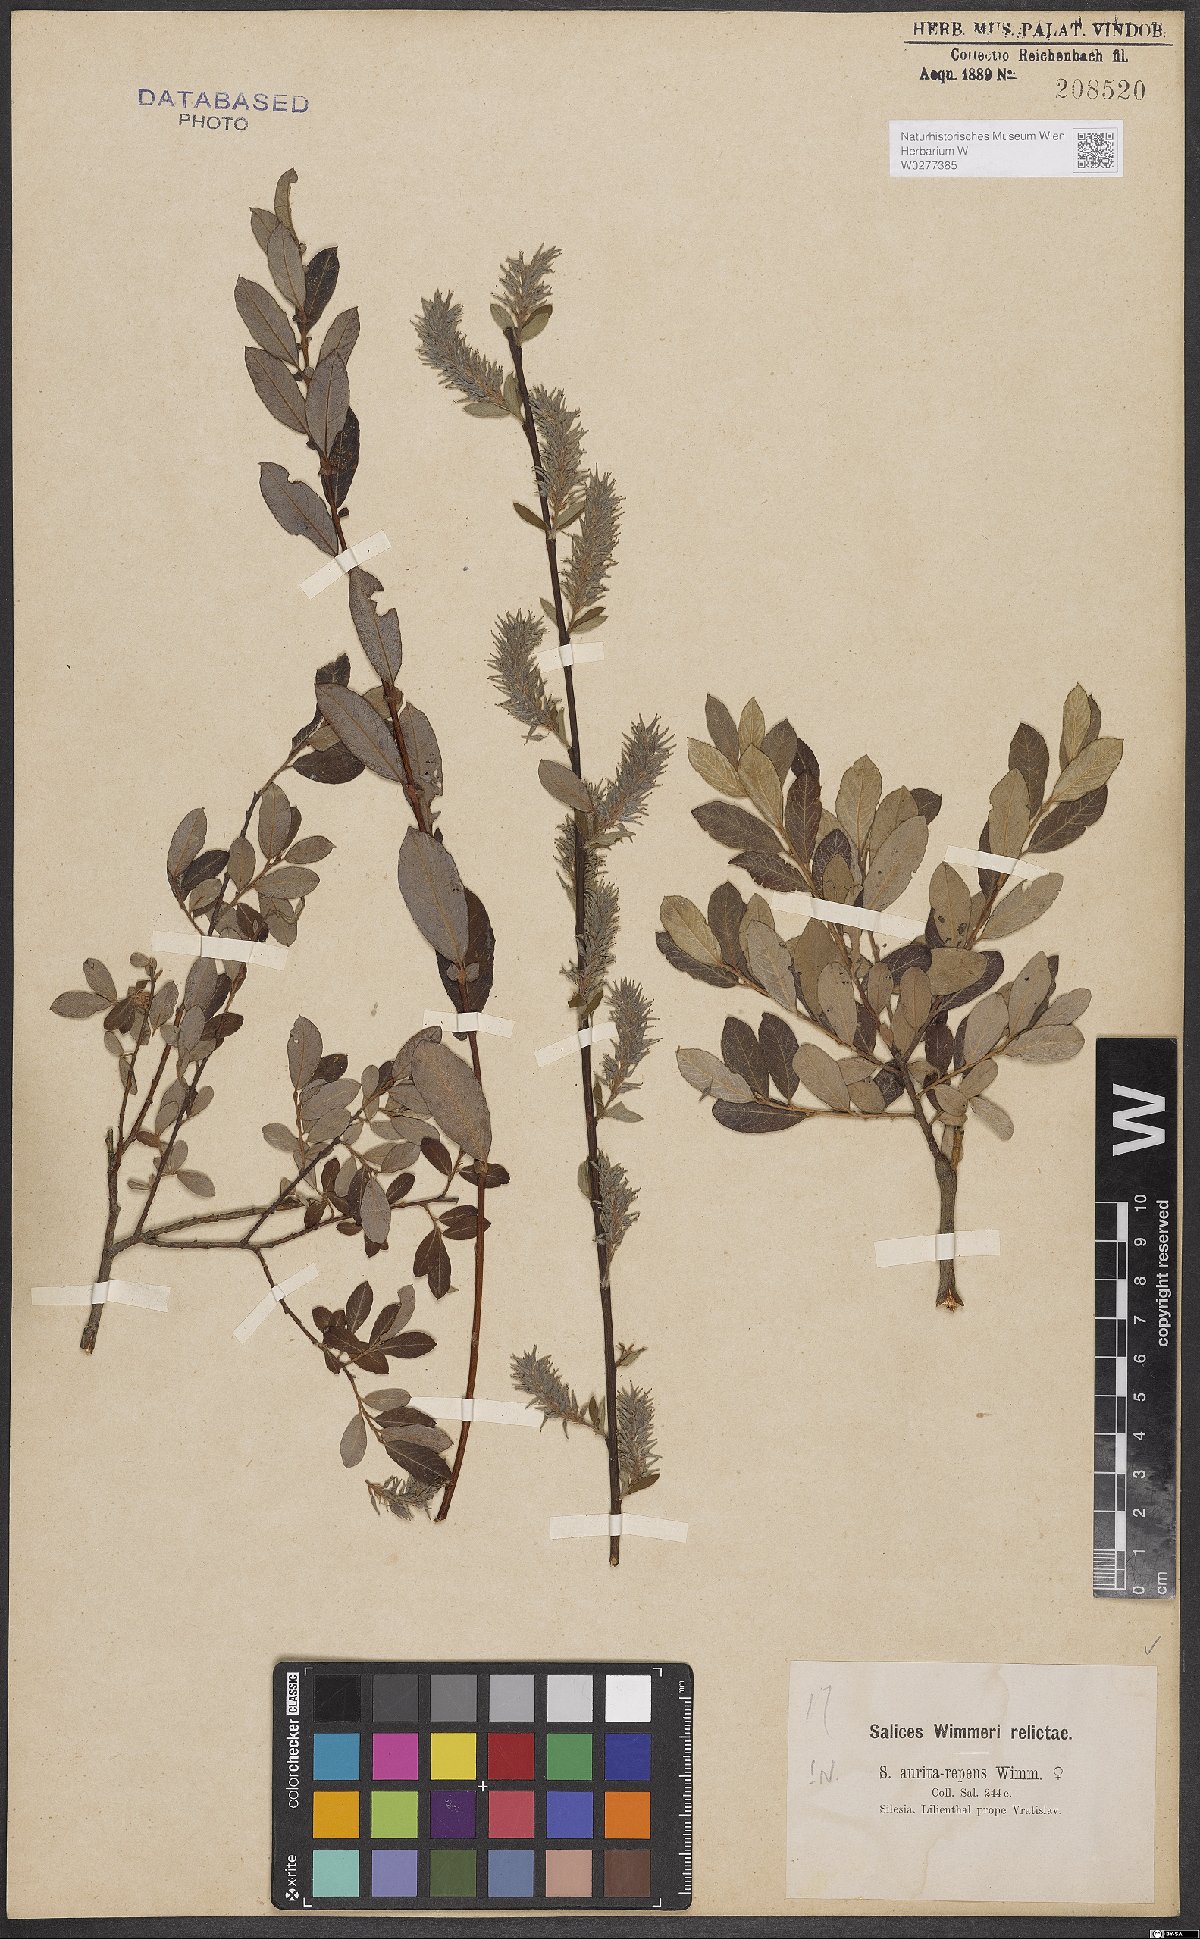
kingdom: Plantae
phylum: Tracheophyta
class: Magnoliopsida
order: Malpighiales
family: Salicaceae
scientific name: Salicaceae
